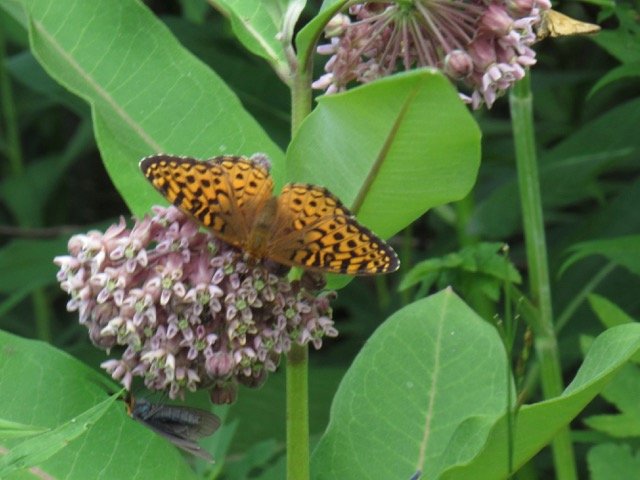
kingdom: Animalia
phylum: Arthropoda
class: Insecta
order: Lepidoptera
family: Nymphalidae
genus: Speyeria
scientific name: Speyeria atlantis
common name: Atlantis Fritillary
